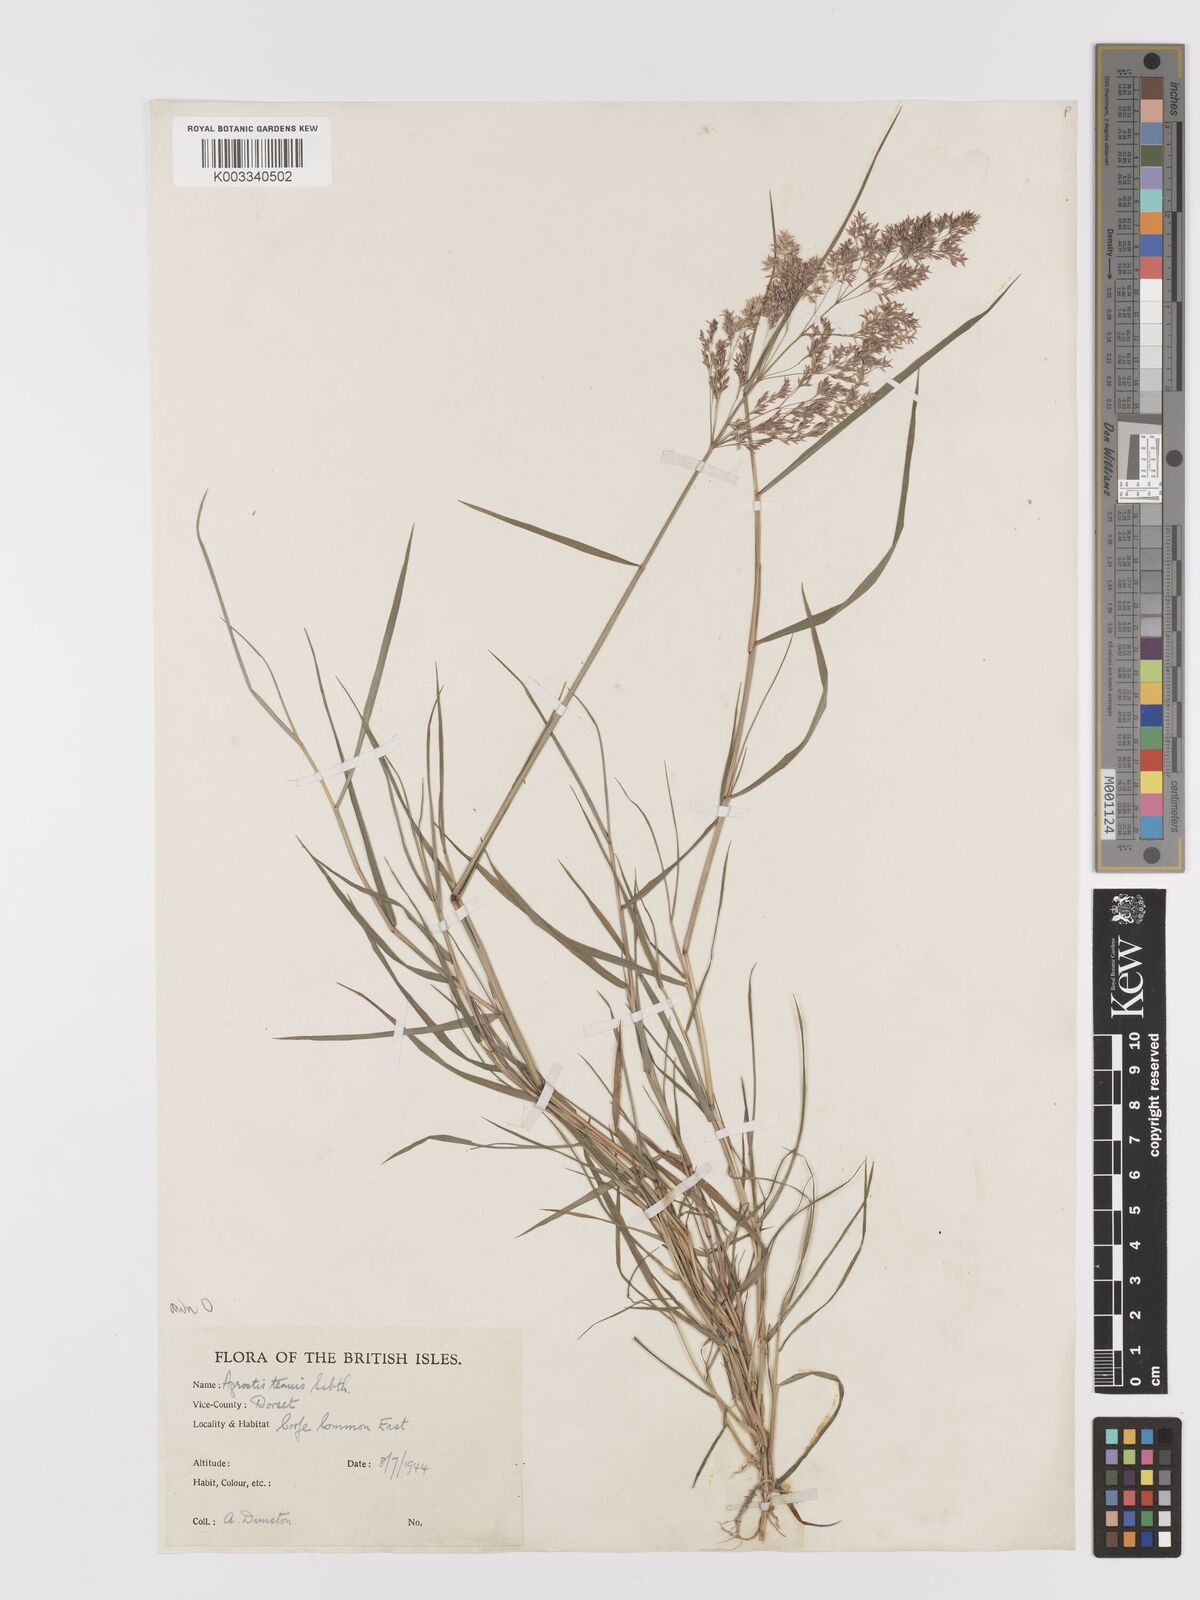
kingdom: Plantae
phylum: Tracheophyta
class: Liliopsida
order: Poales
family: Poaceae
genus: Agrostis
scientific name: Agrostis capillaris
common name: Colonial bentgrass
